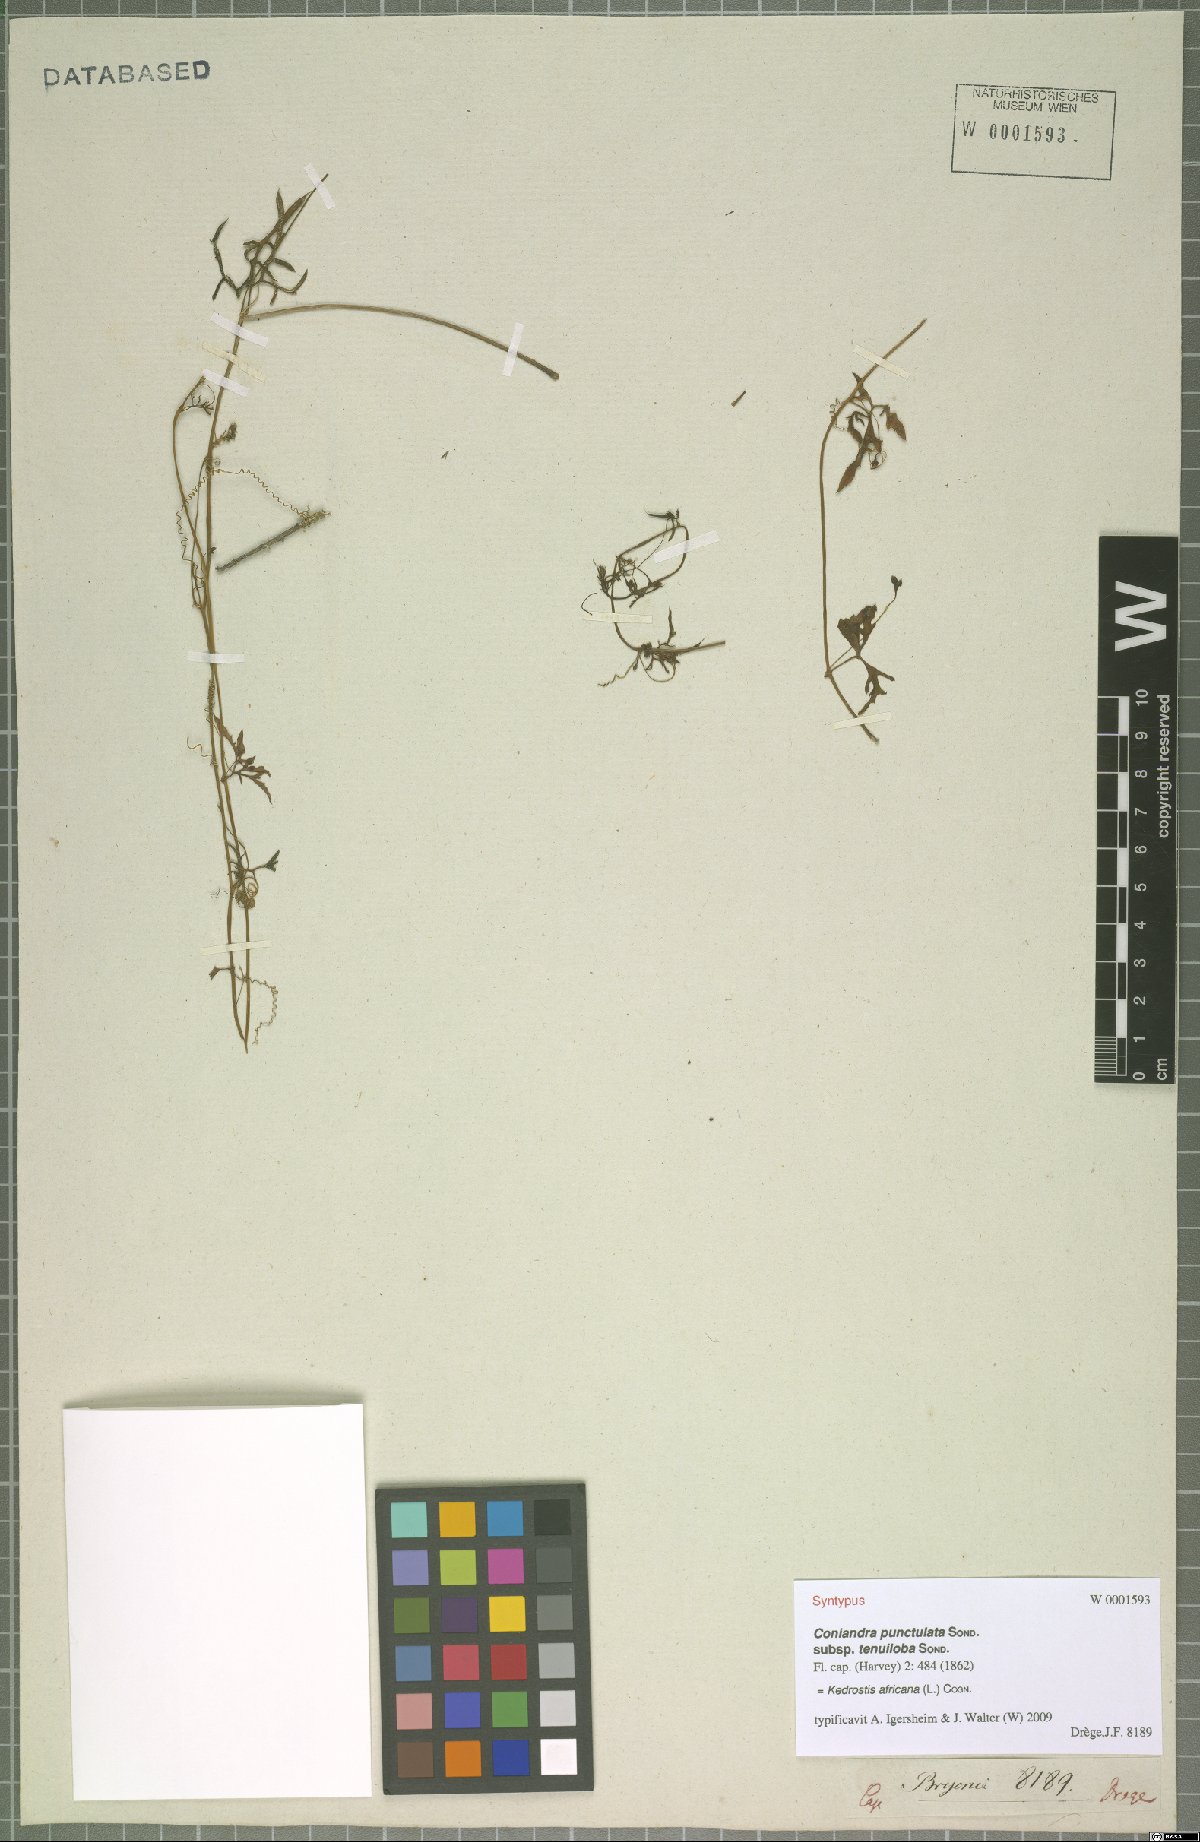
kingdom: Plantae
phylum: Tracheophyta
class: Magnoliopsida
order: Cucurbitales
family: Cucurbitaceae
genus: Kedrostis
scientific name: Kedrostis africana
